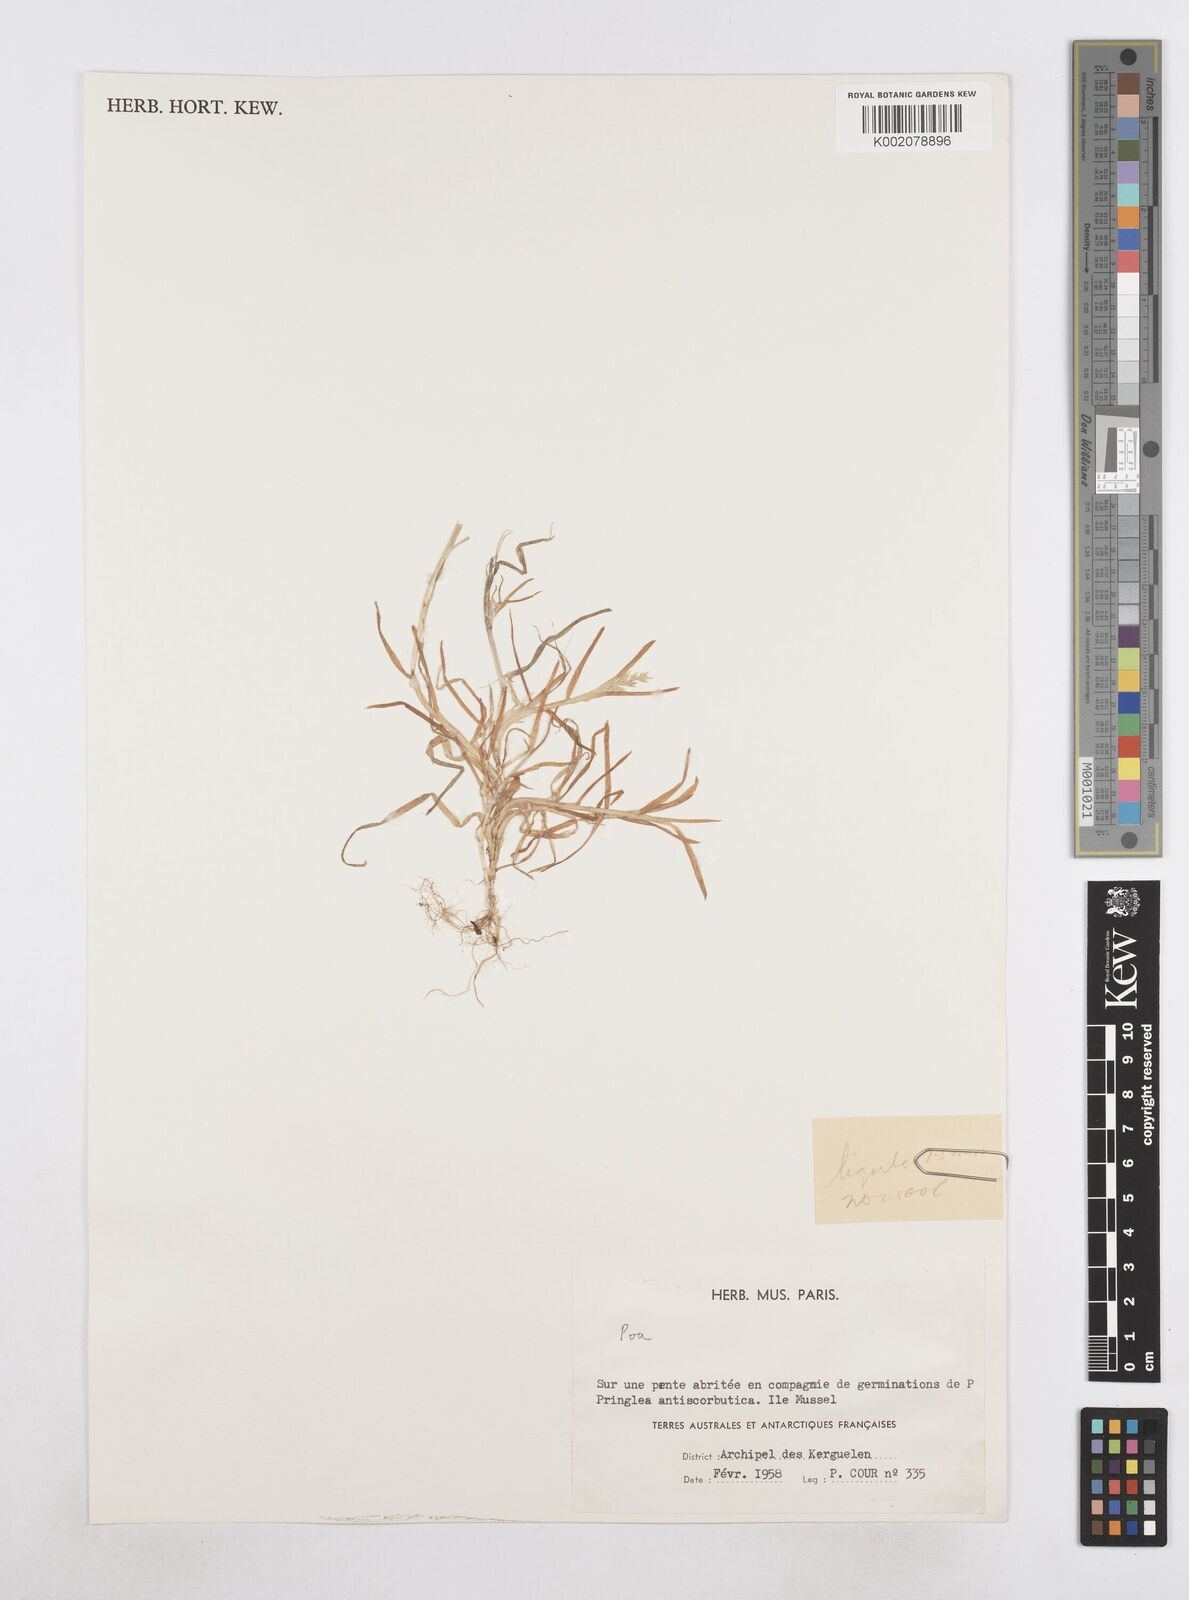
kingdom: Plantae
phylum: Tracheophyta
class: Liliopsida
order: Poales
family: Poaceae
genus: Poa
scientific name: Poa
